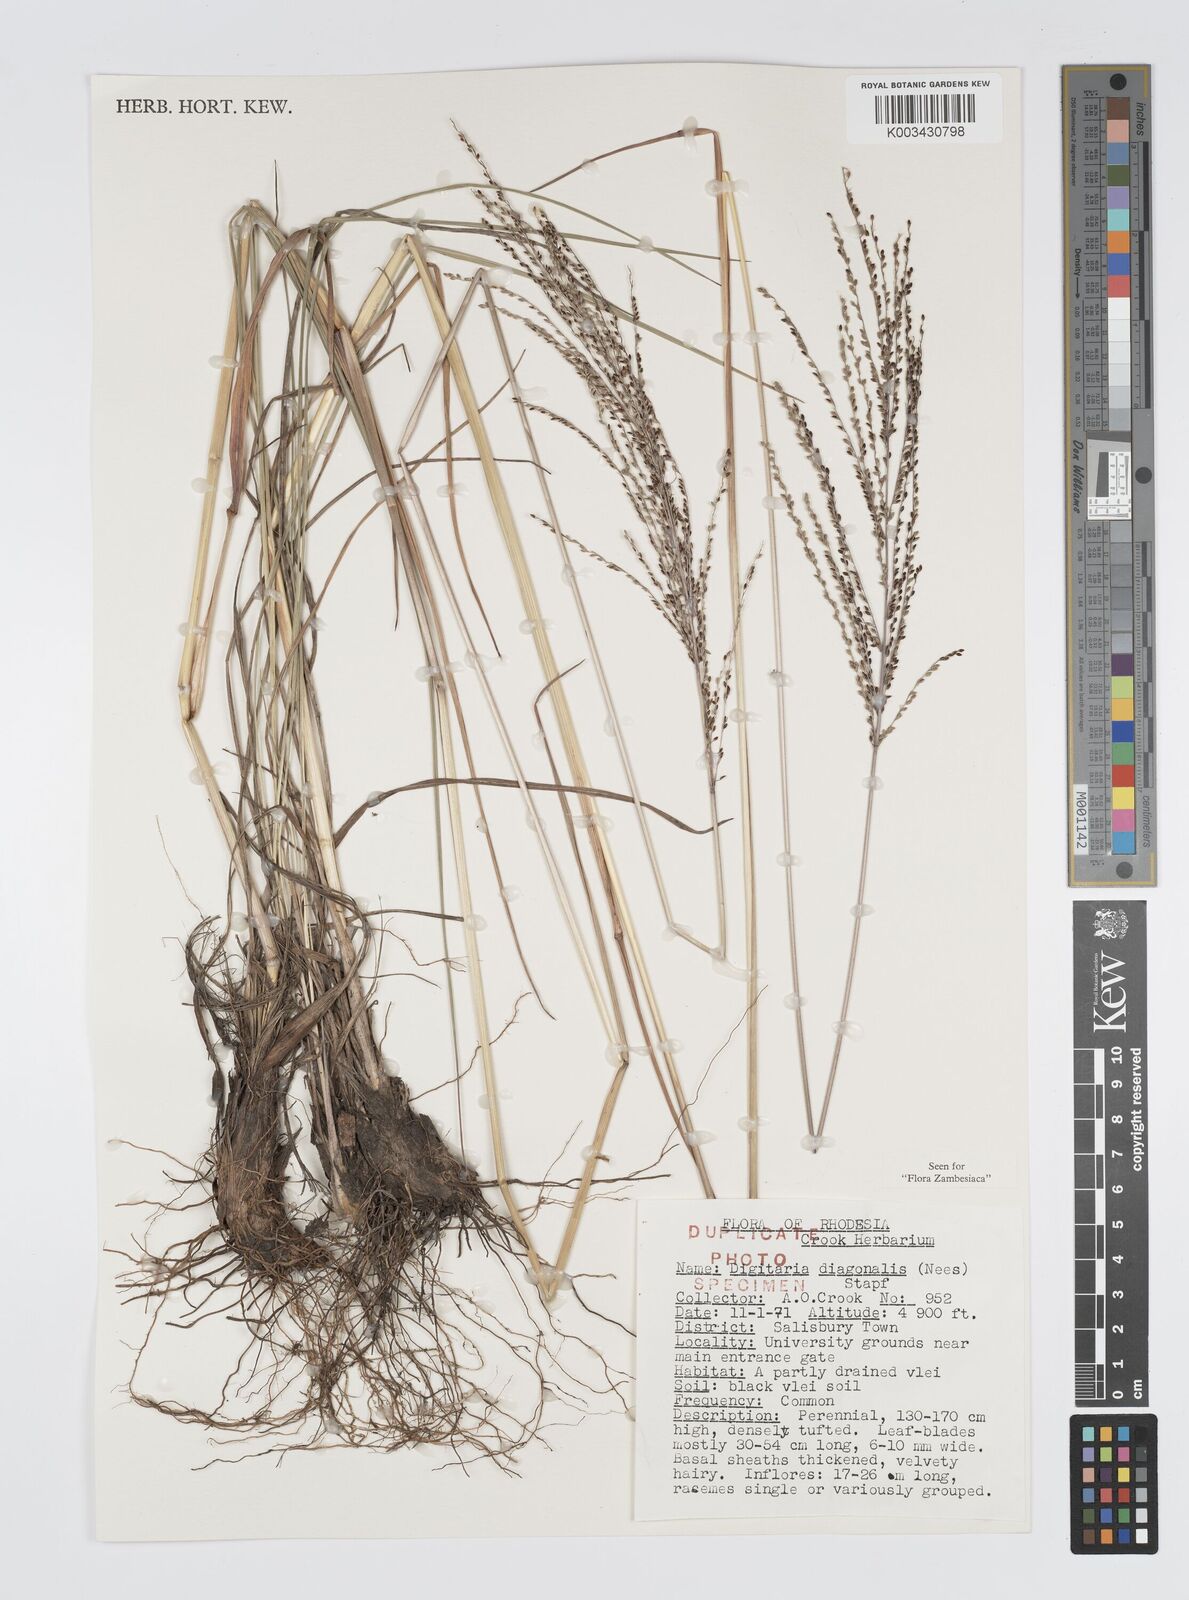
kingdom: Plantae
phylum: Tracheophyta
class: Liliopsida
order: Poales
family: Poaceae
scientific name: Poaceae
